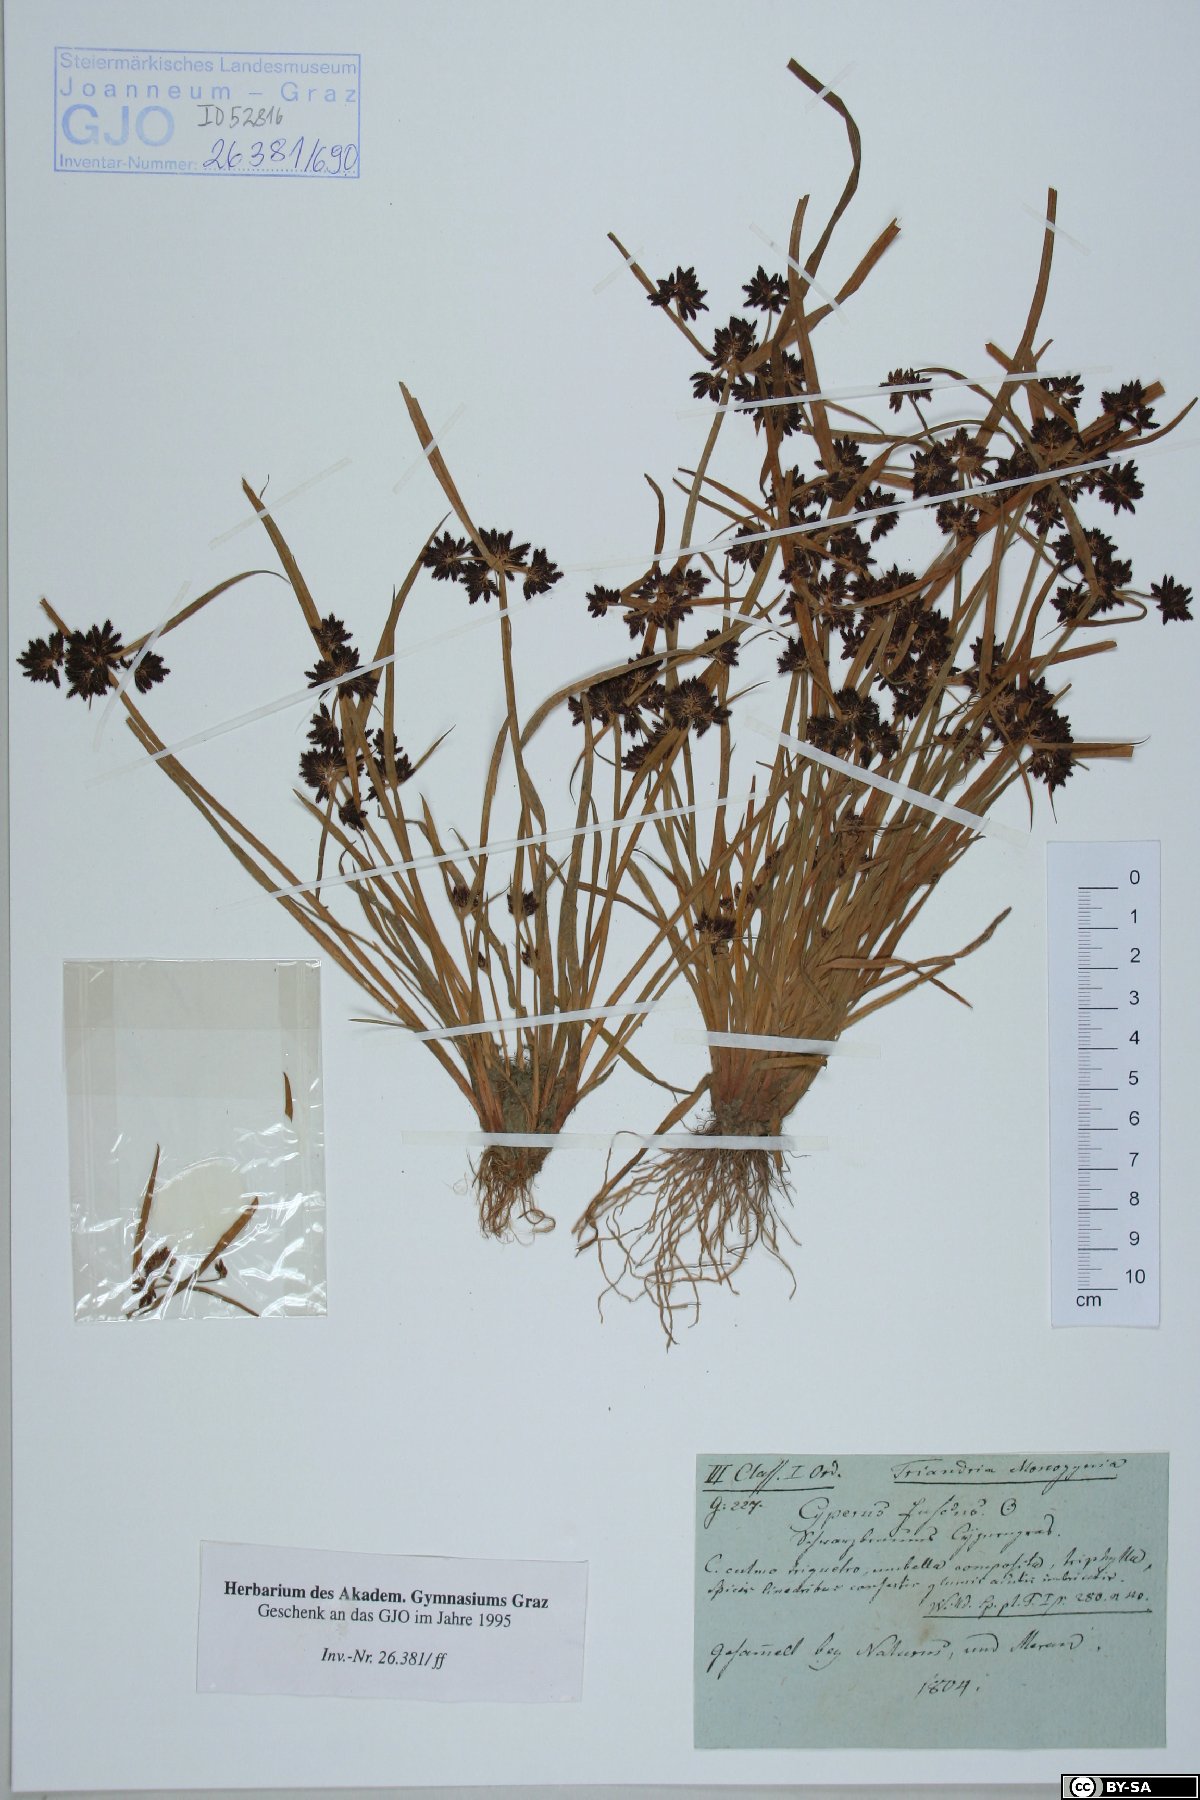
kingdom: Plantae
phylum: Tracheophyta
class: Liliopsida
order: Poales
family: Cyperaceae
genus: Cyperus
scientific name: Cyperus fuscus
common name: Brown galingale
